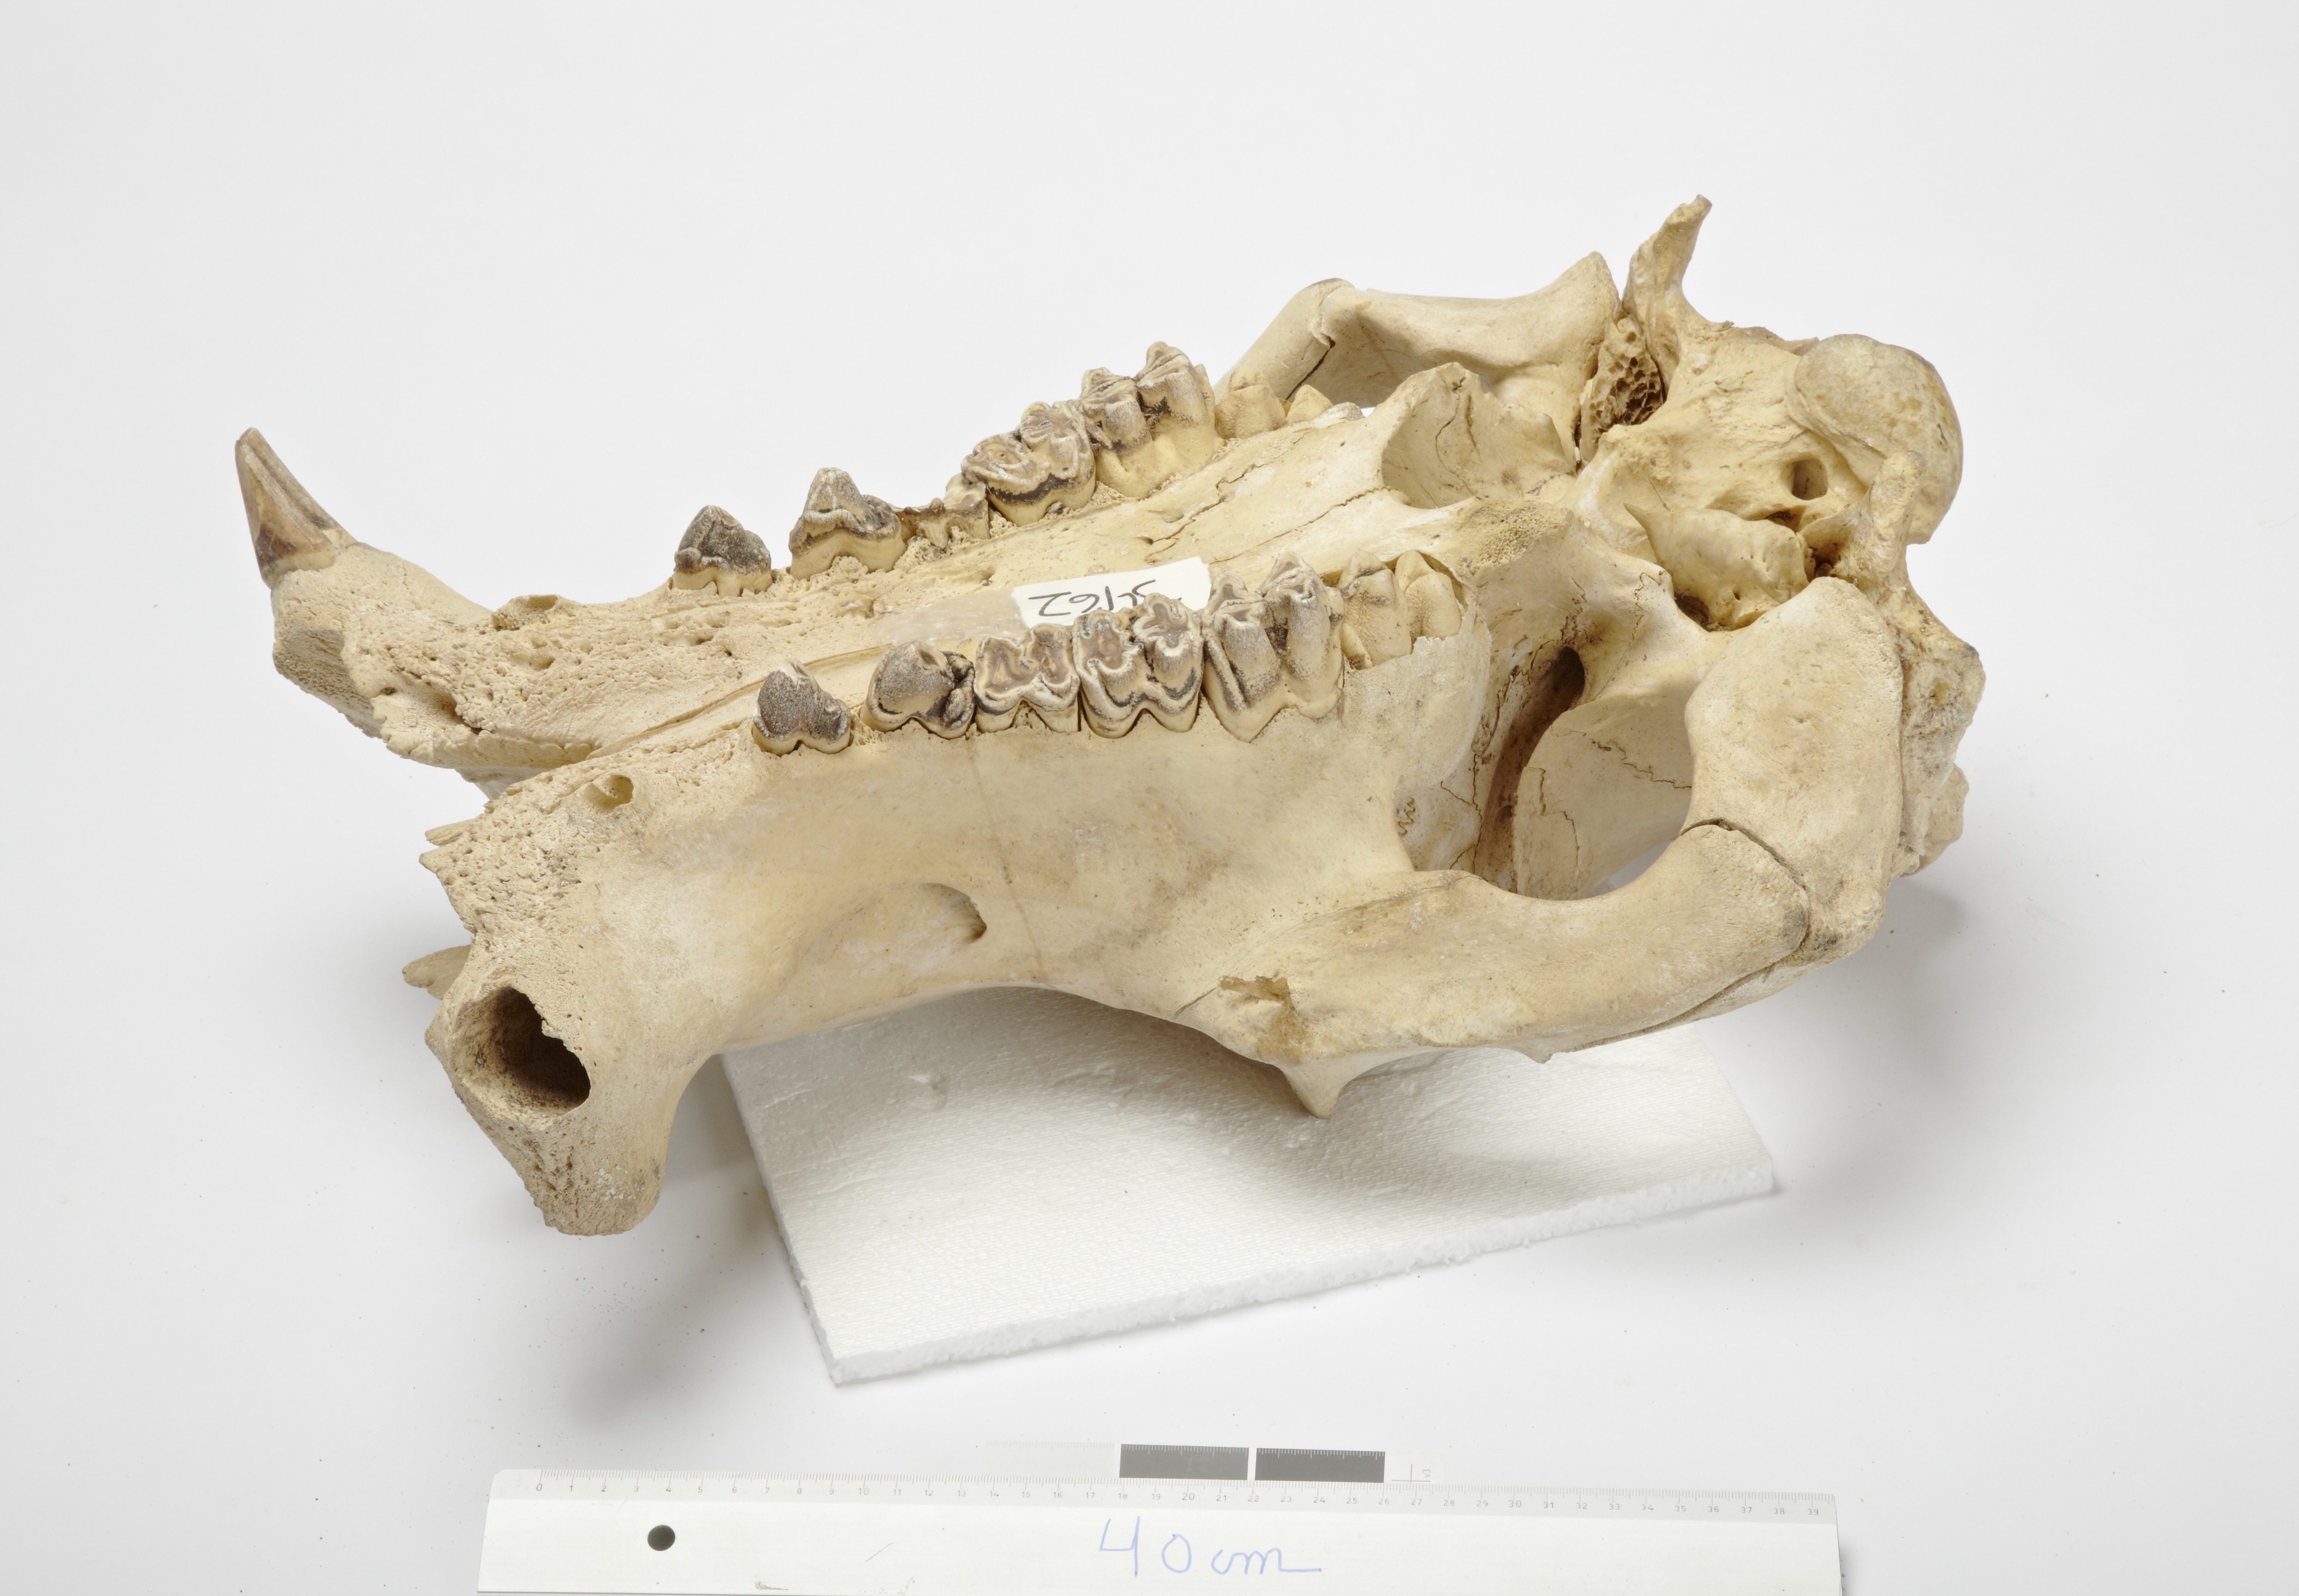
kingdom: Animalia
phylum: Chordata
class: Mammalia
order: Artiodactyla
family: Hippopotamidae
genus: Hippopotamus
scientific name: Hippopotamus amphibius
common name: Common hippopotamus
